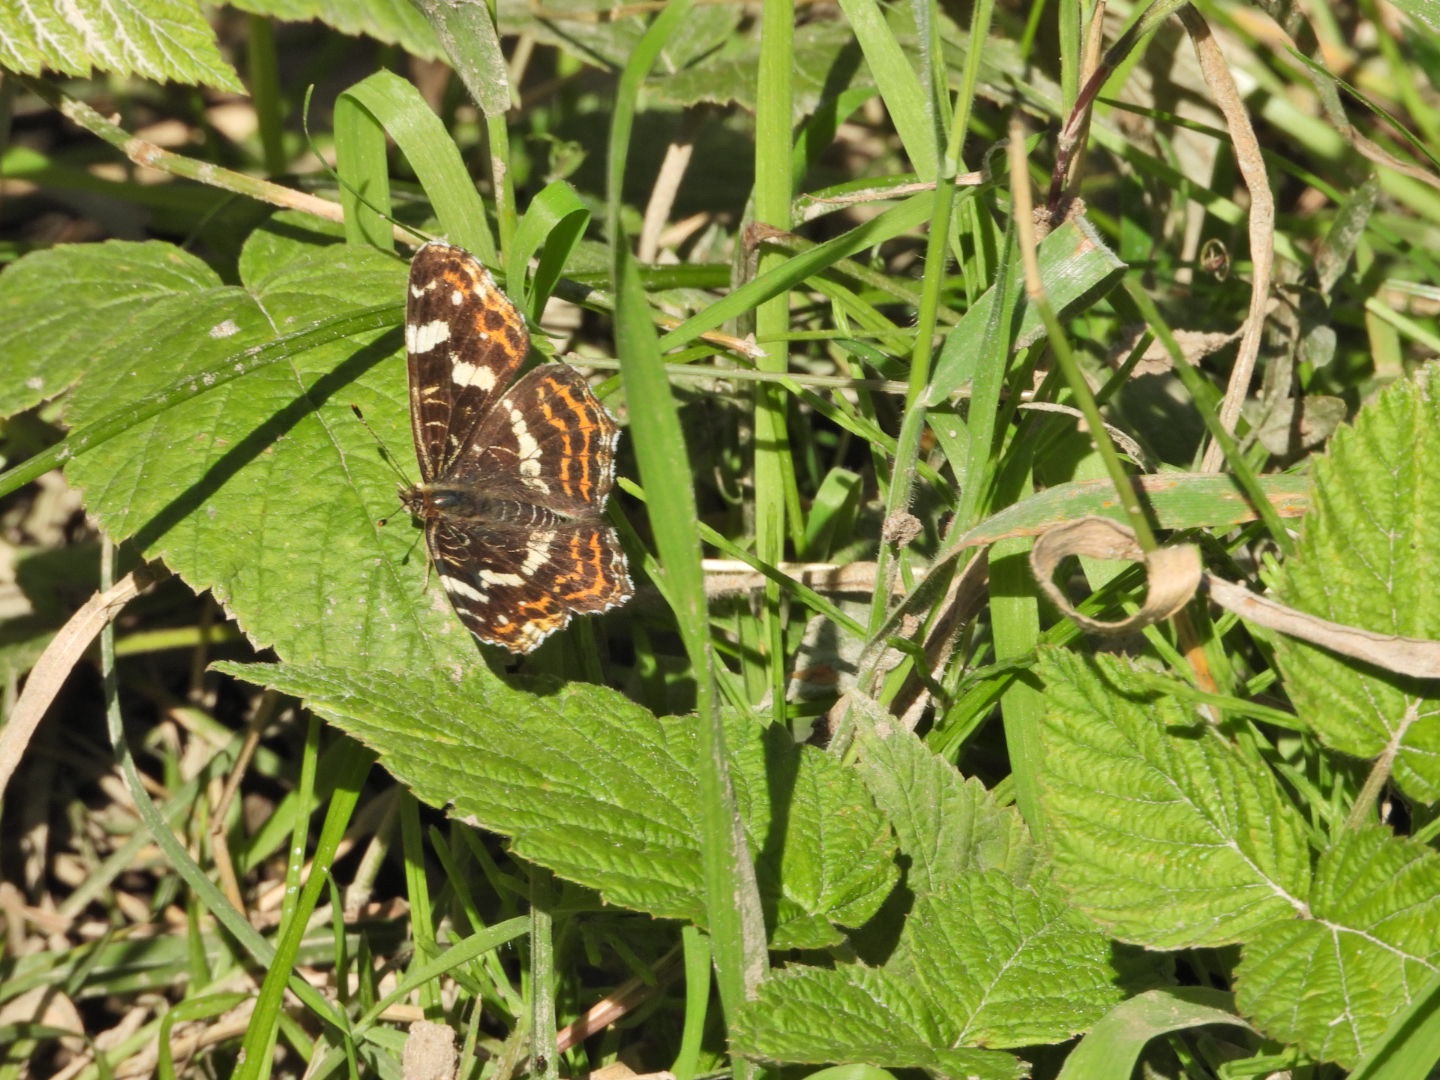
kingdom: Animalia
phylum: Arthropoda
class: Insecta
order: Lepidoptera
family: Nymphalidae
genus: Araschnia
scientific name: Araschnia levana
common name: Nældesommerfugl
